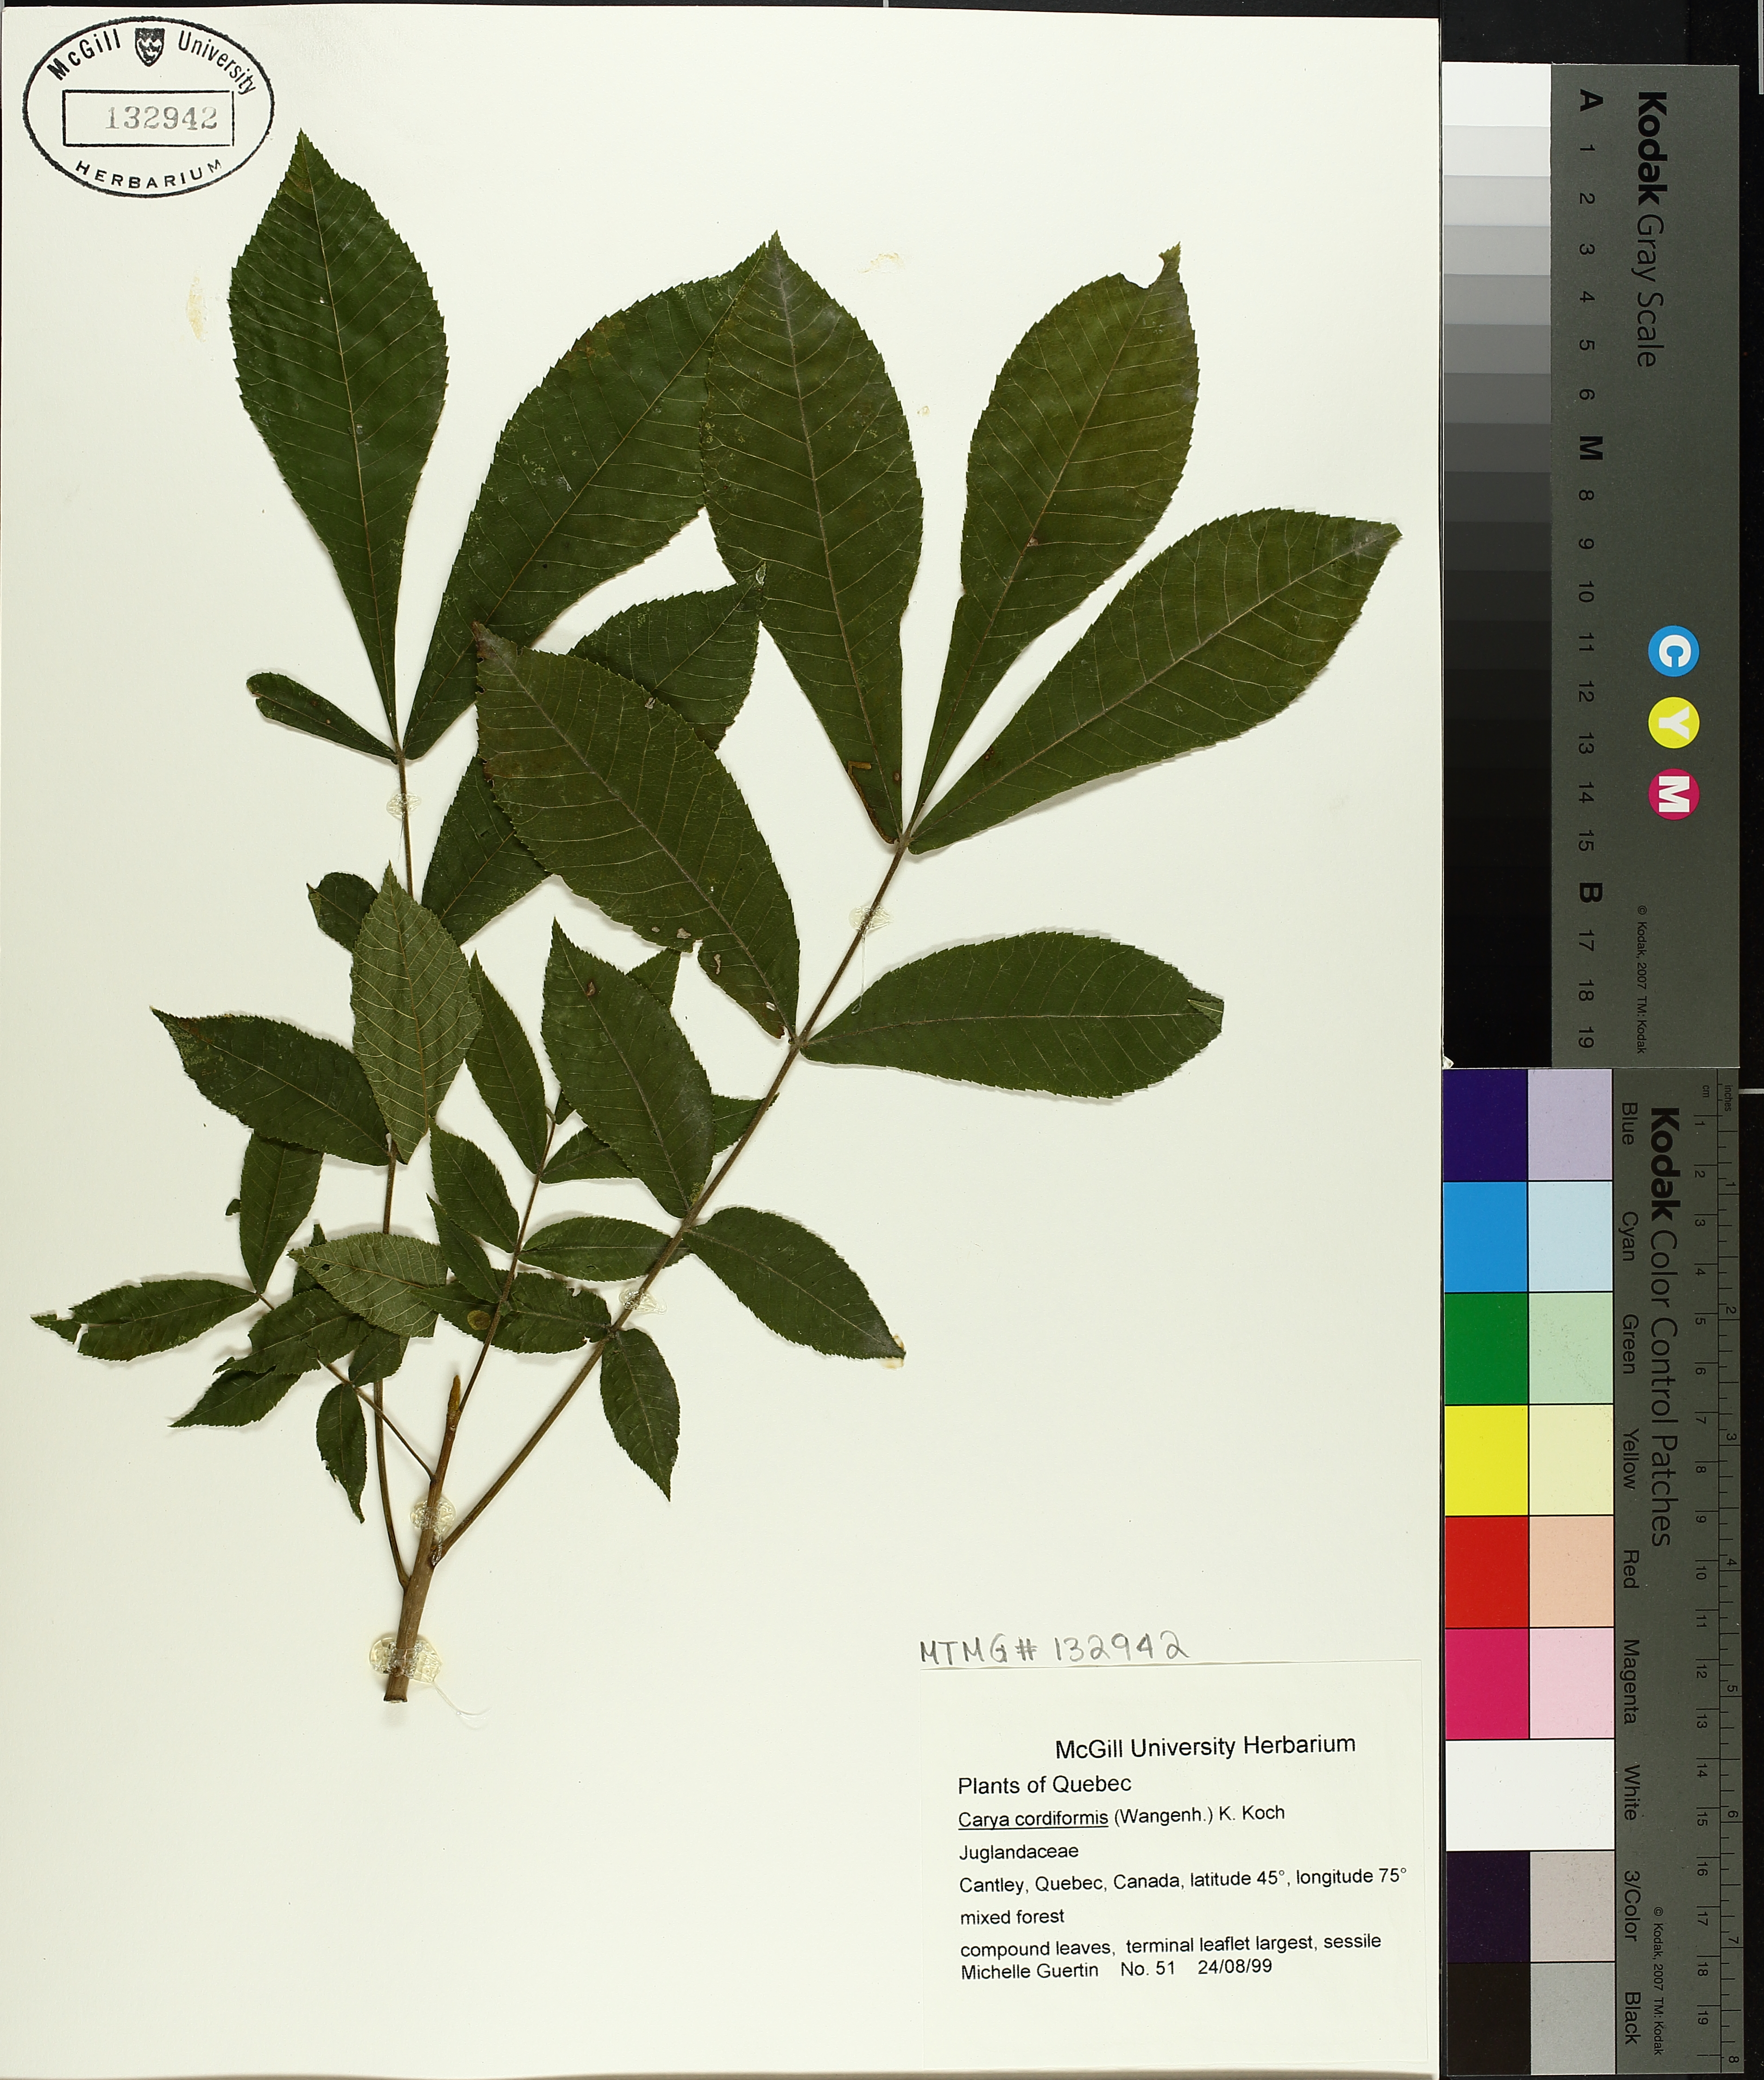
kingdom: Plantae
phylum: Tracheophyta
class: Magnoliopsida
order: Fagales
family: Juglandaceae
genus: Carya
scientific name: Carya cordiformis
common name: Bitternut hickory
